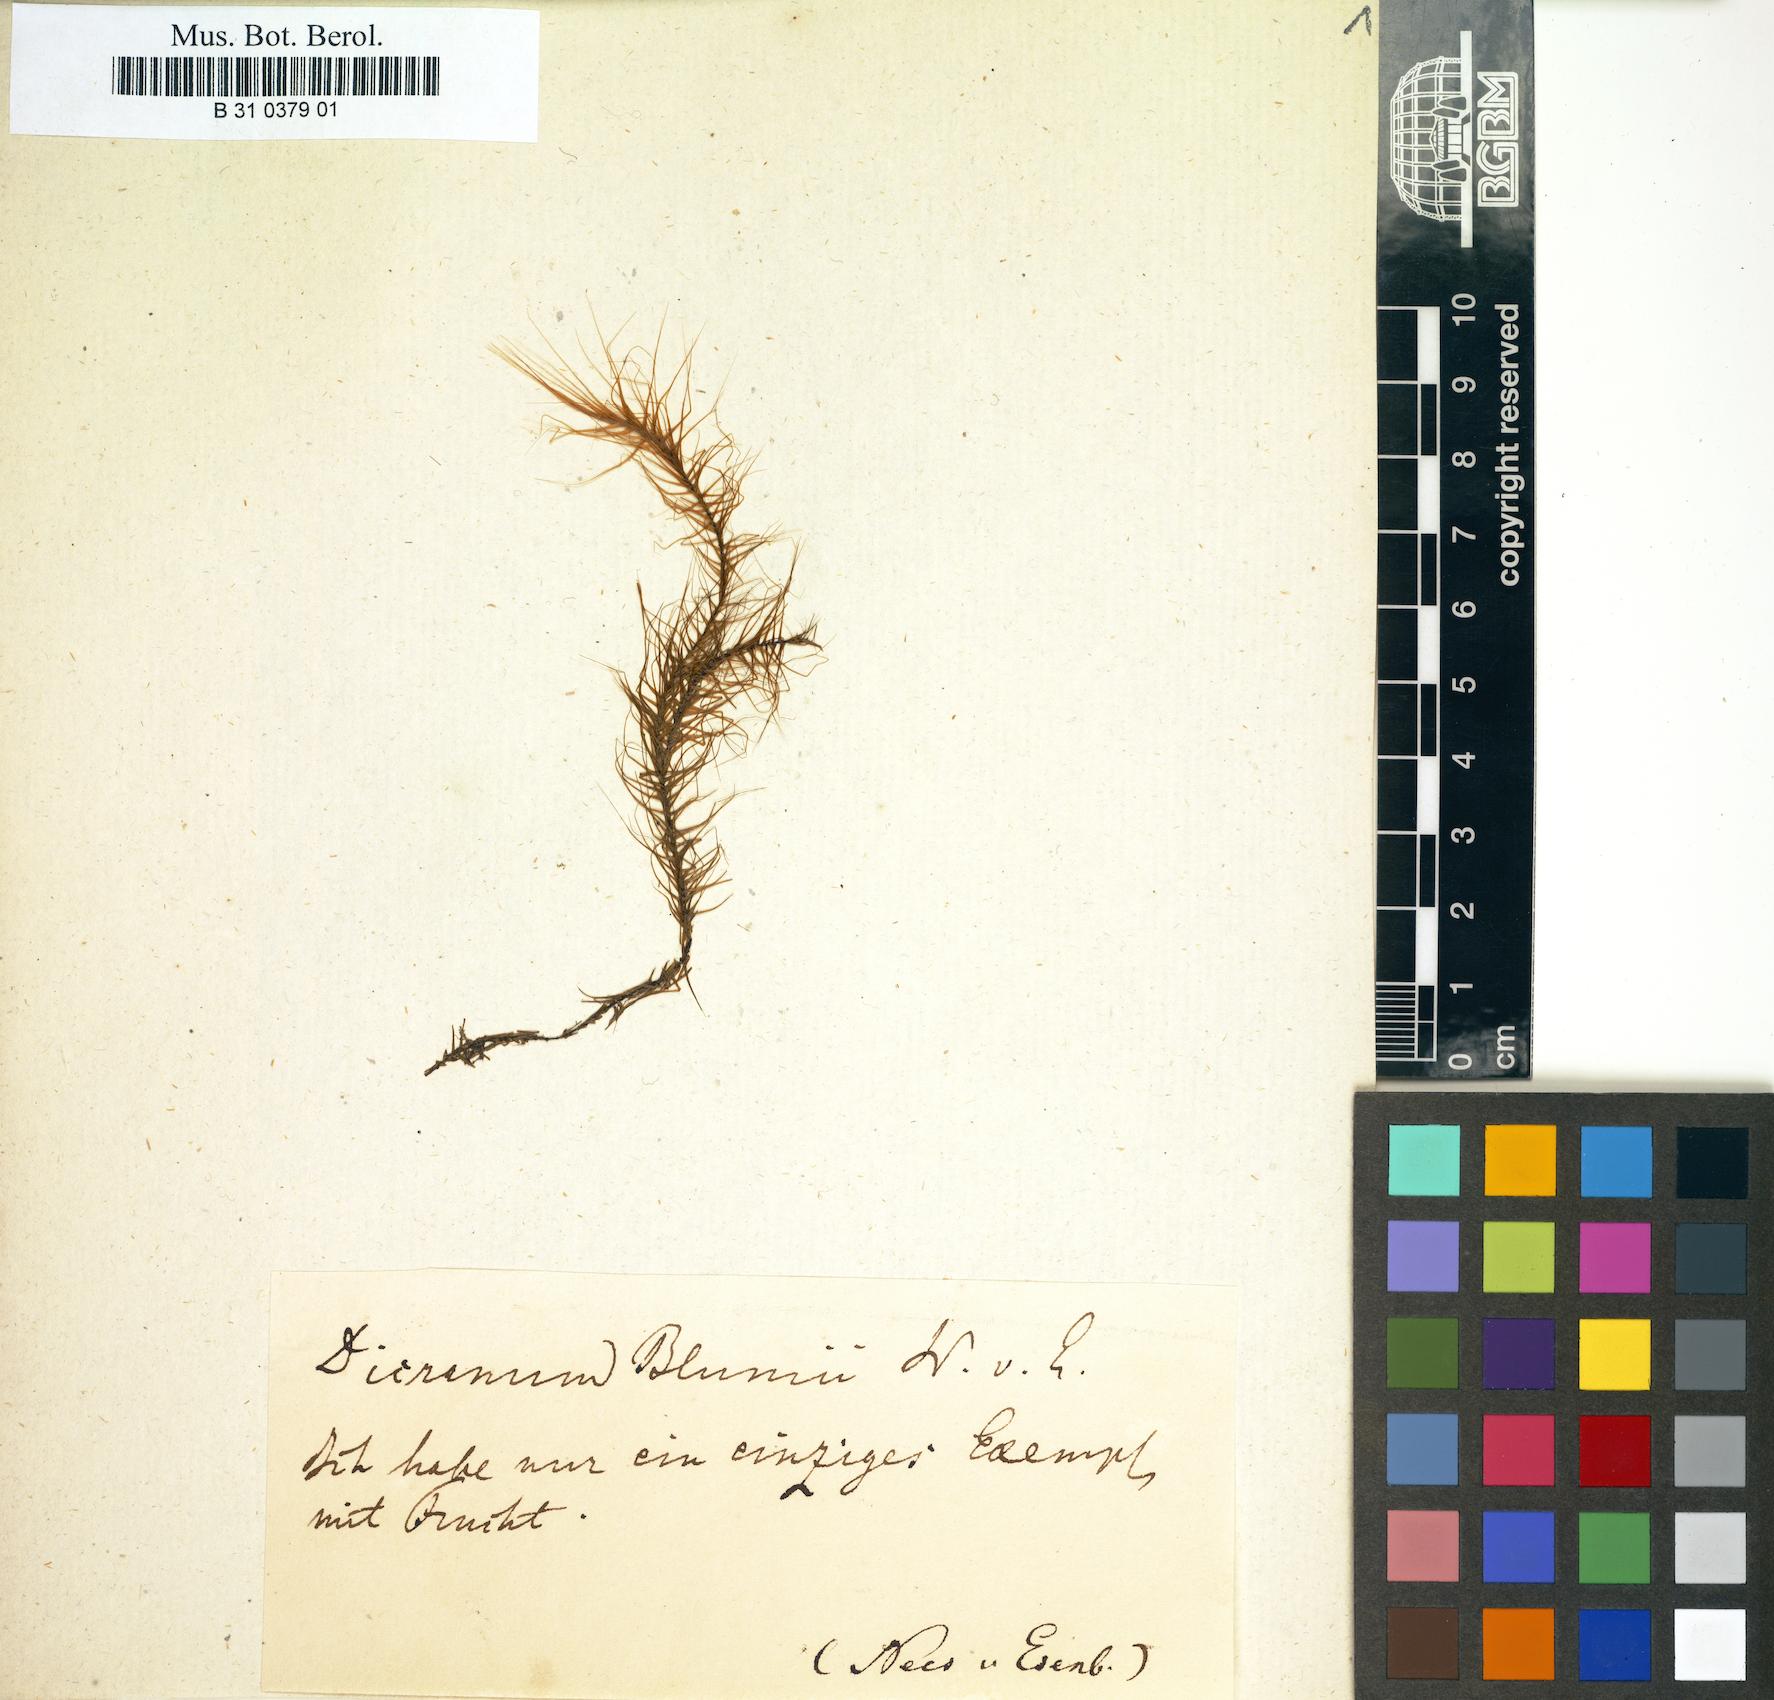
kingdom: Plantae
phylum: Bryophyta
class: Bryopsida
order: Dicranales
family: Dicranaceae
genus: Dicranoloma
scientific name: Dicranoloma blumei
